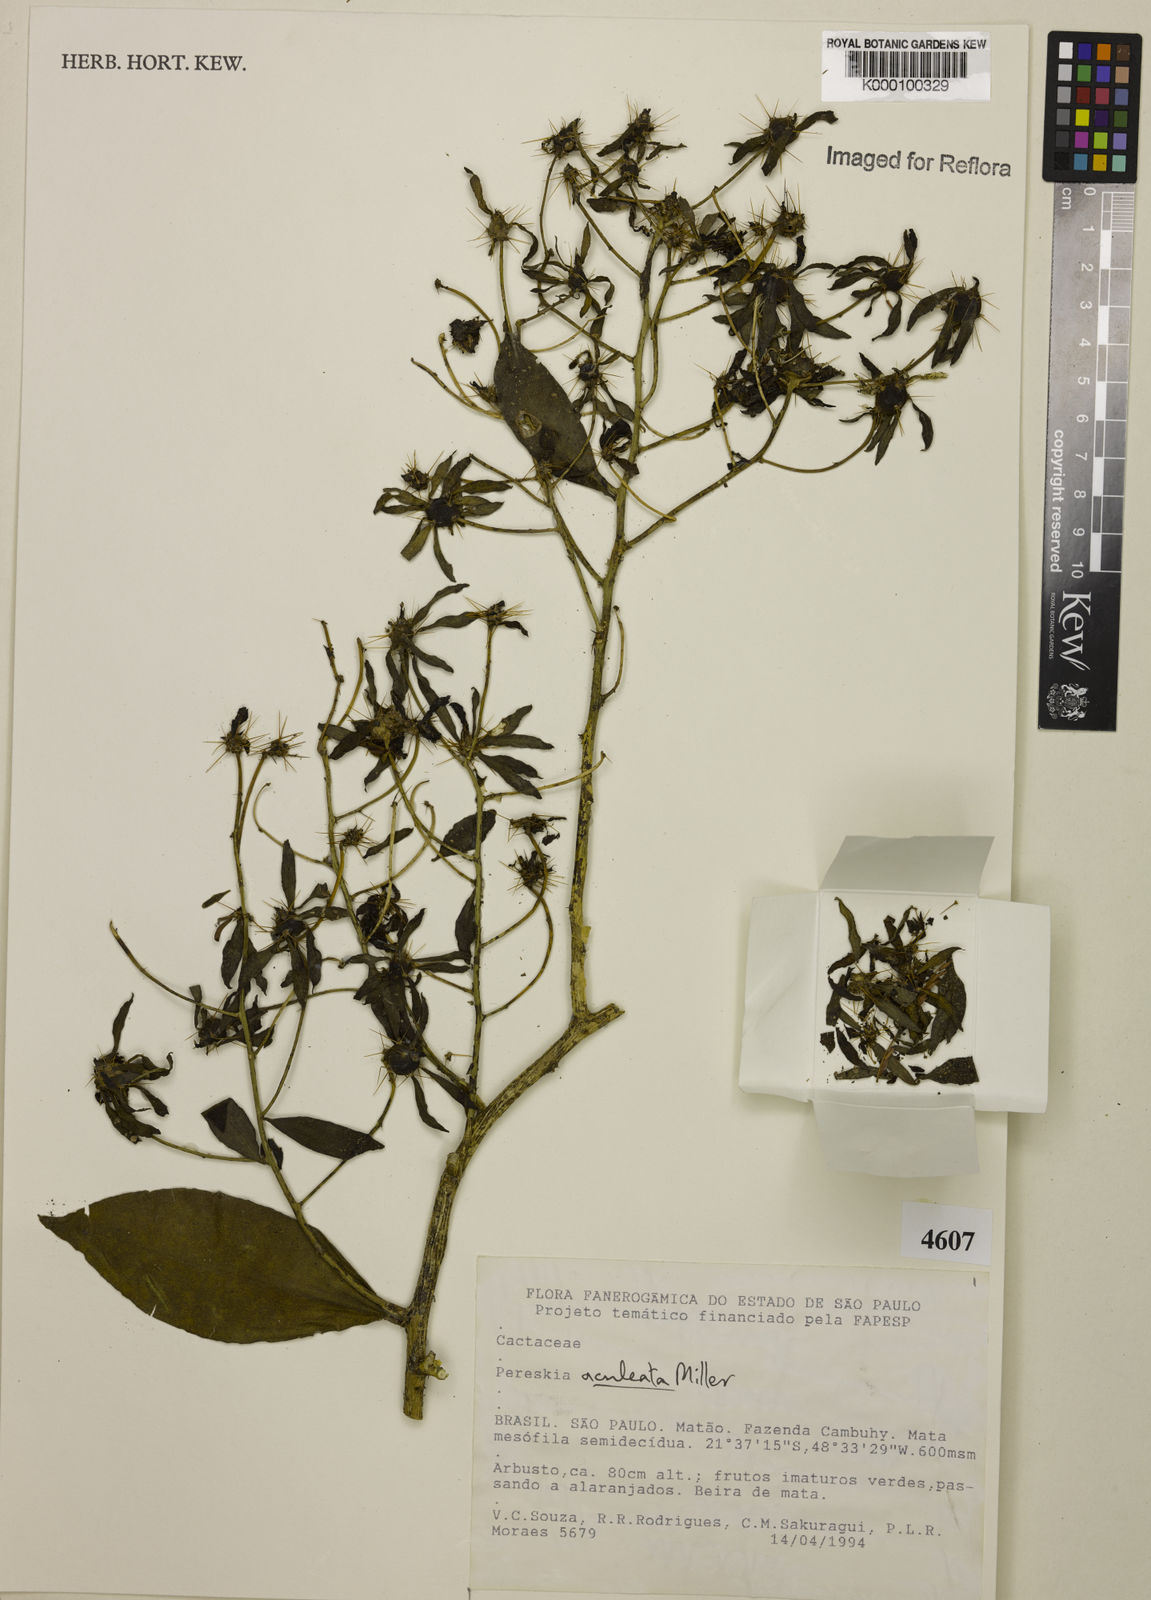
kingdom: Plantae
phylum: Tracheophyta
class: Magnoliopsida
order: Caryophyllales
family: Cactaceae
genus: Pereskia
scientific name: Pereskia aculeata
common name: Barbados gooseberry
